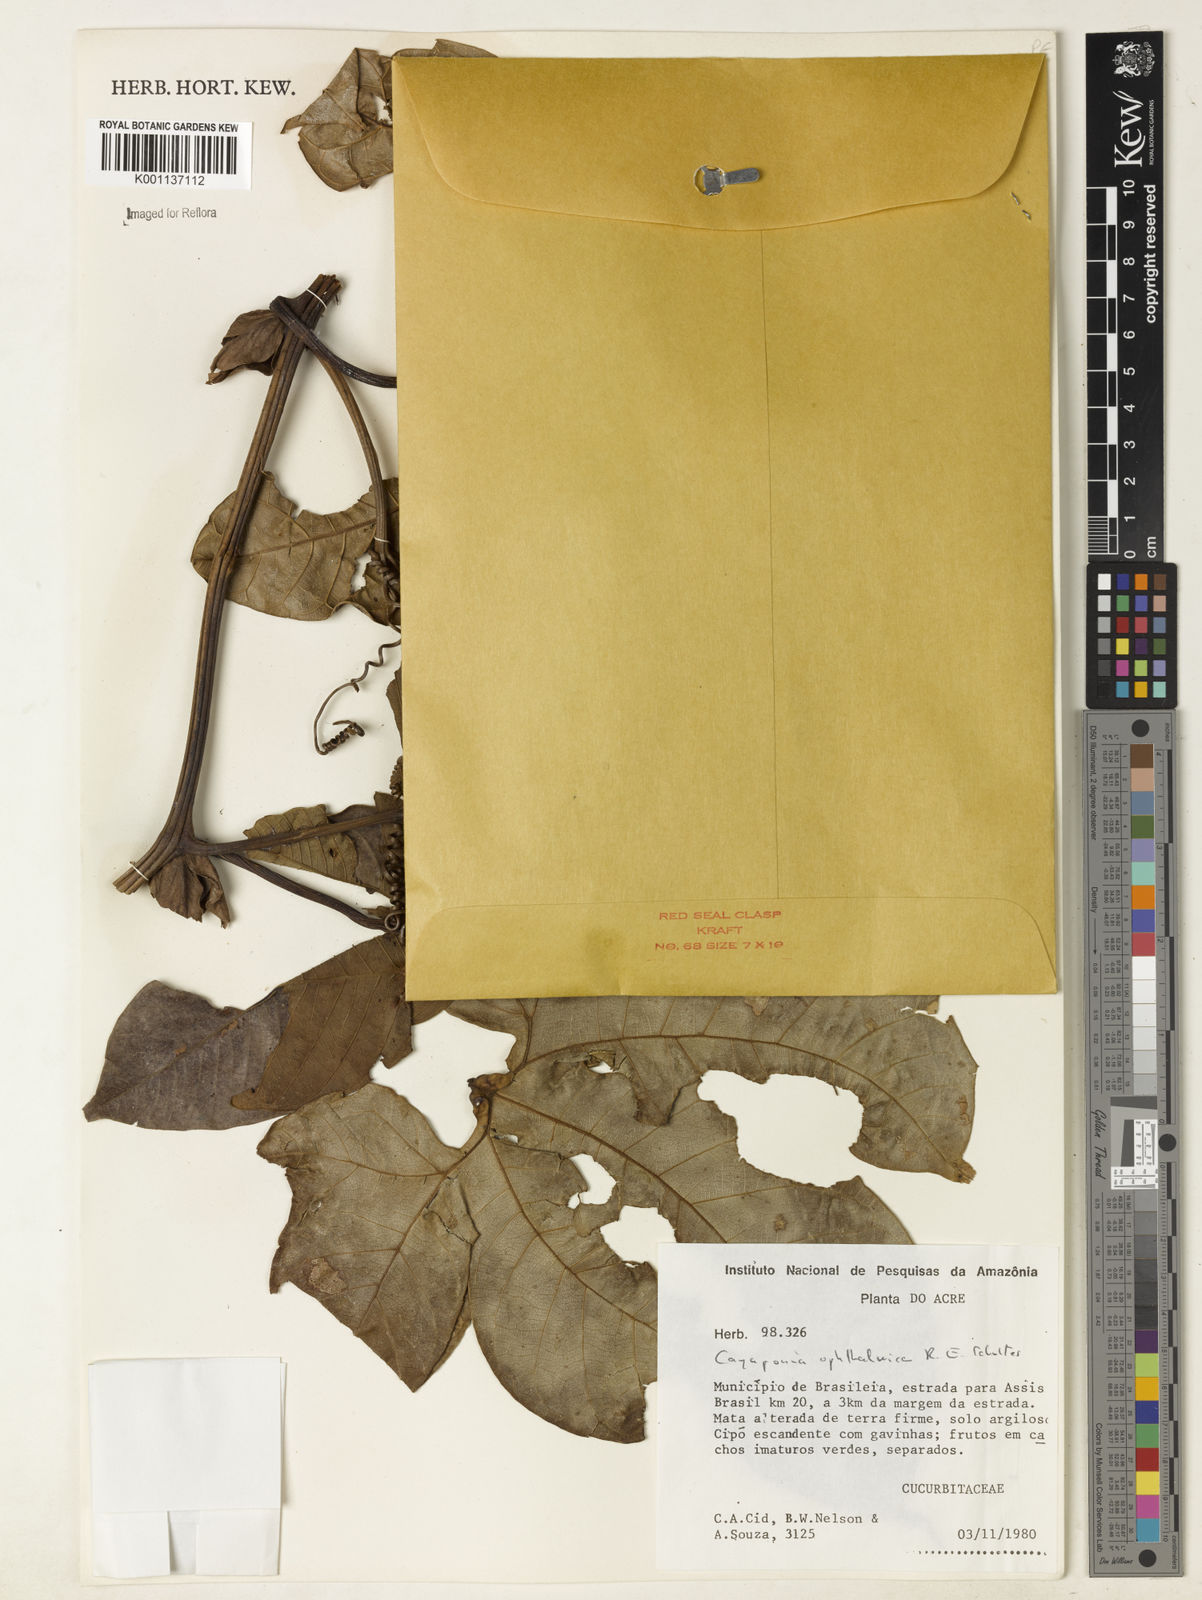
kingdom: Plantae
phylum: Tracheophyta
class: Magnoliopsida
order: Cucurbitales
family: Cucurbitaceae
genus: Cayaponia
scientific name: Cayaponia ophthalmica
